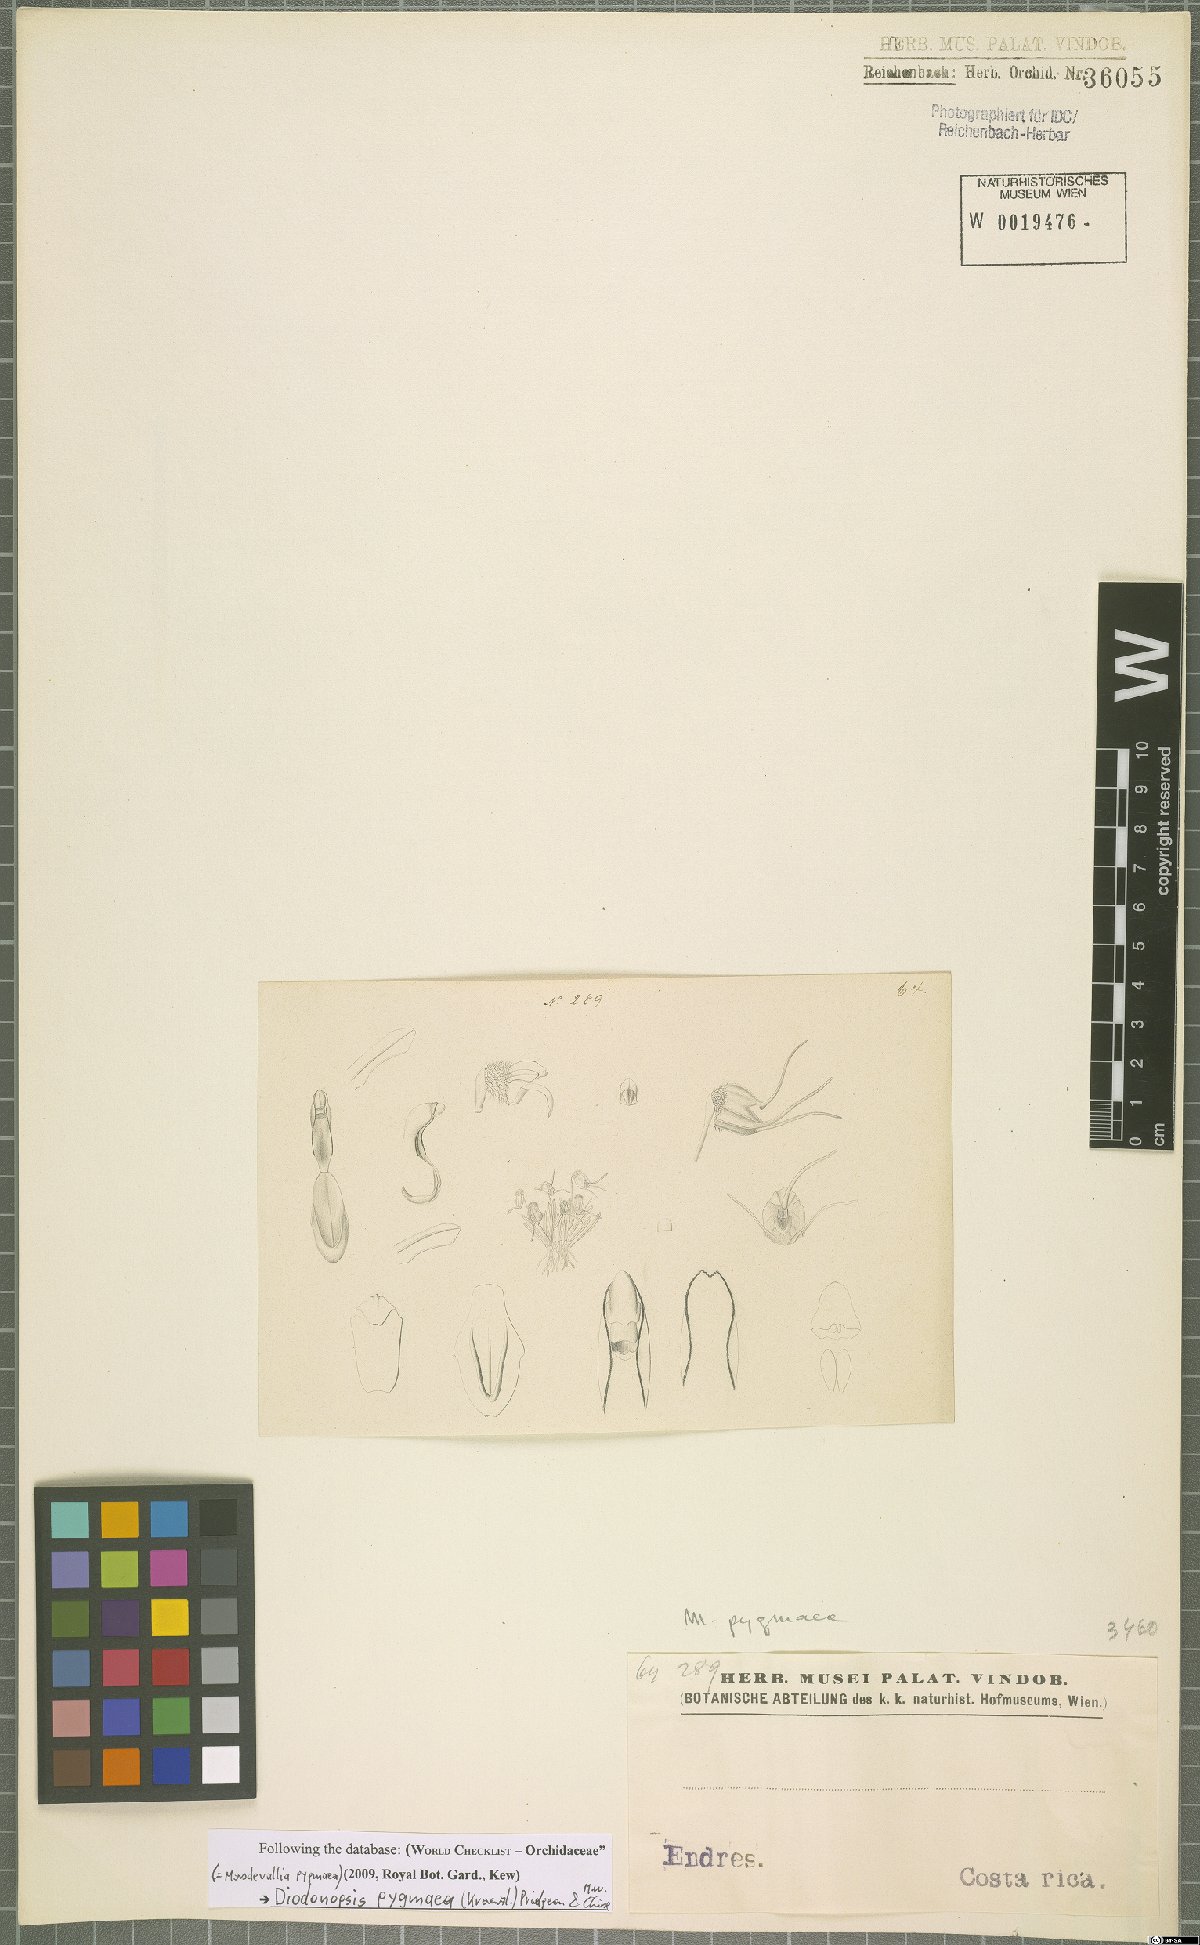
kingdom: Plantae
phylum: Tracheophyta
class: Liliopsida
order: Asparagales
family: Orchidaceae
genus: Diodonopsis
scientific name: Diodonopsis pygmaea
